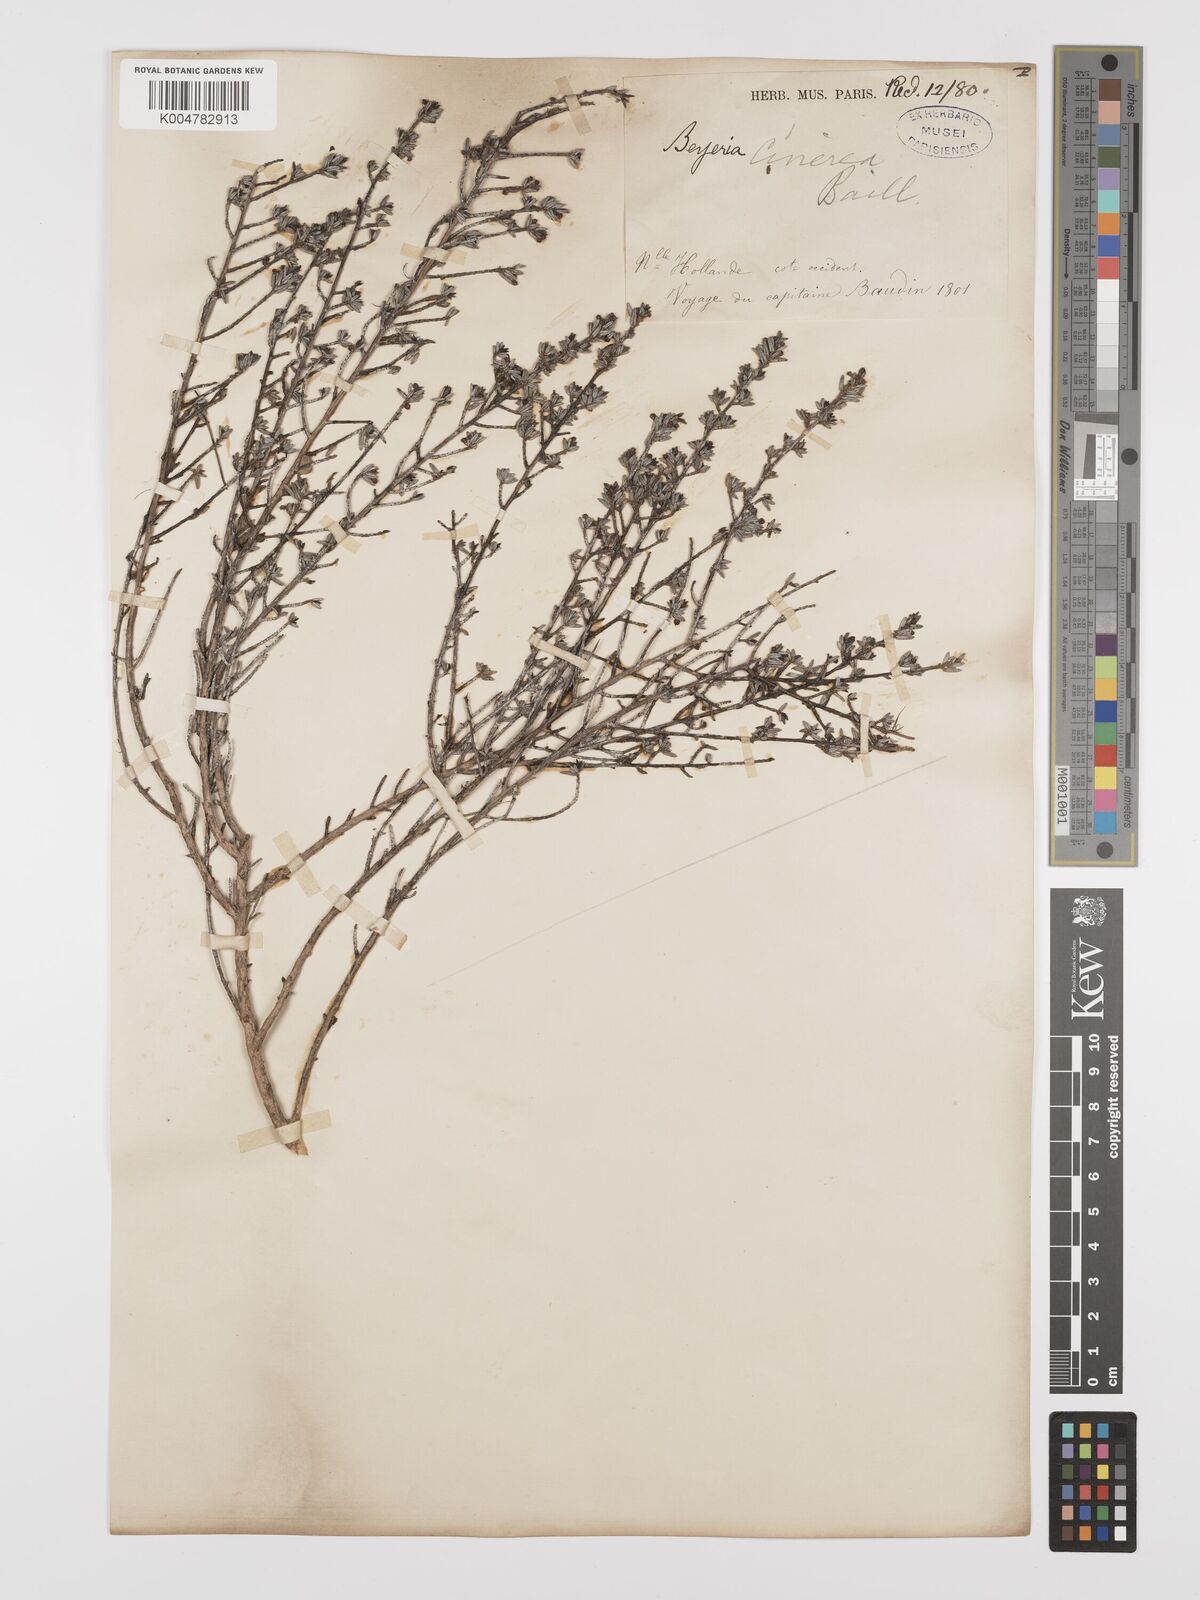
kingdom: Plantae
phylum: Tracheophyta
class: Magnoliopsida
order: Malpighiales
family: Euphorbiaceae
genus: Beyeria
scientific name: Beyeria cinerea
